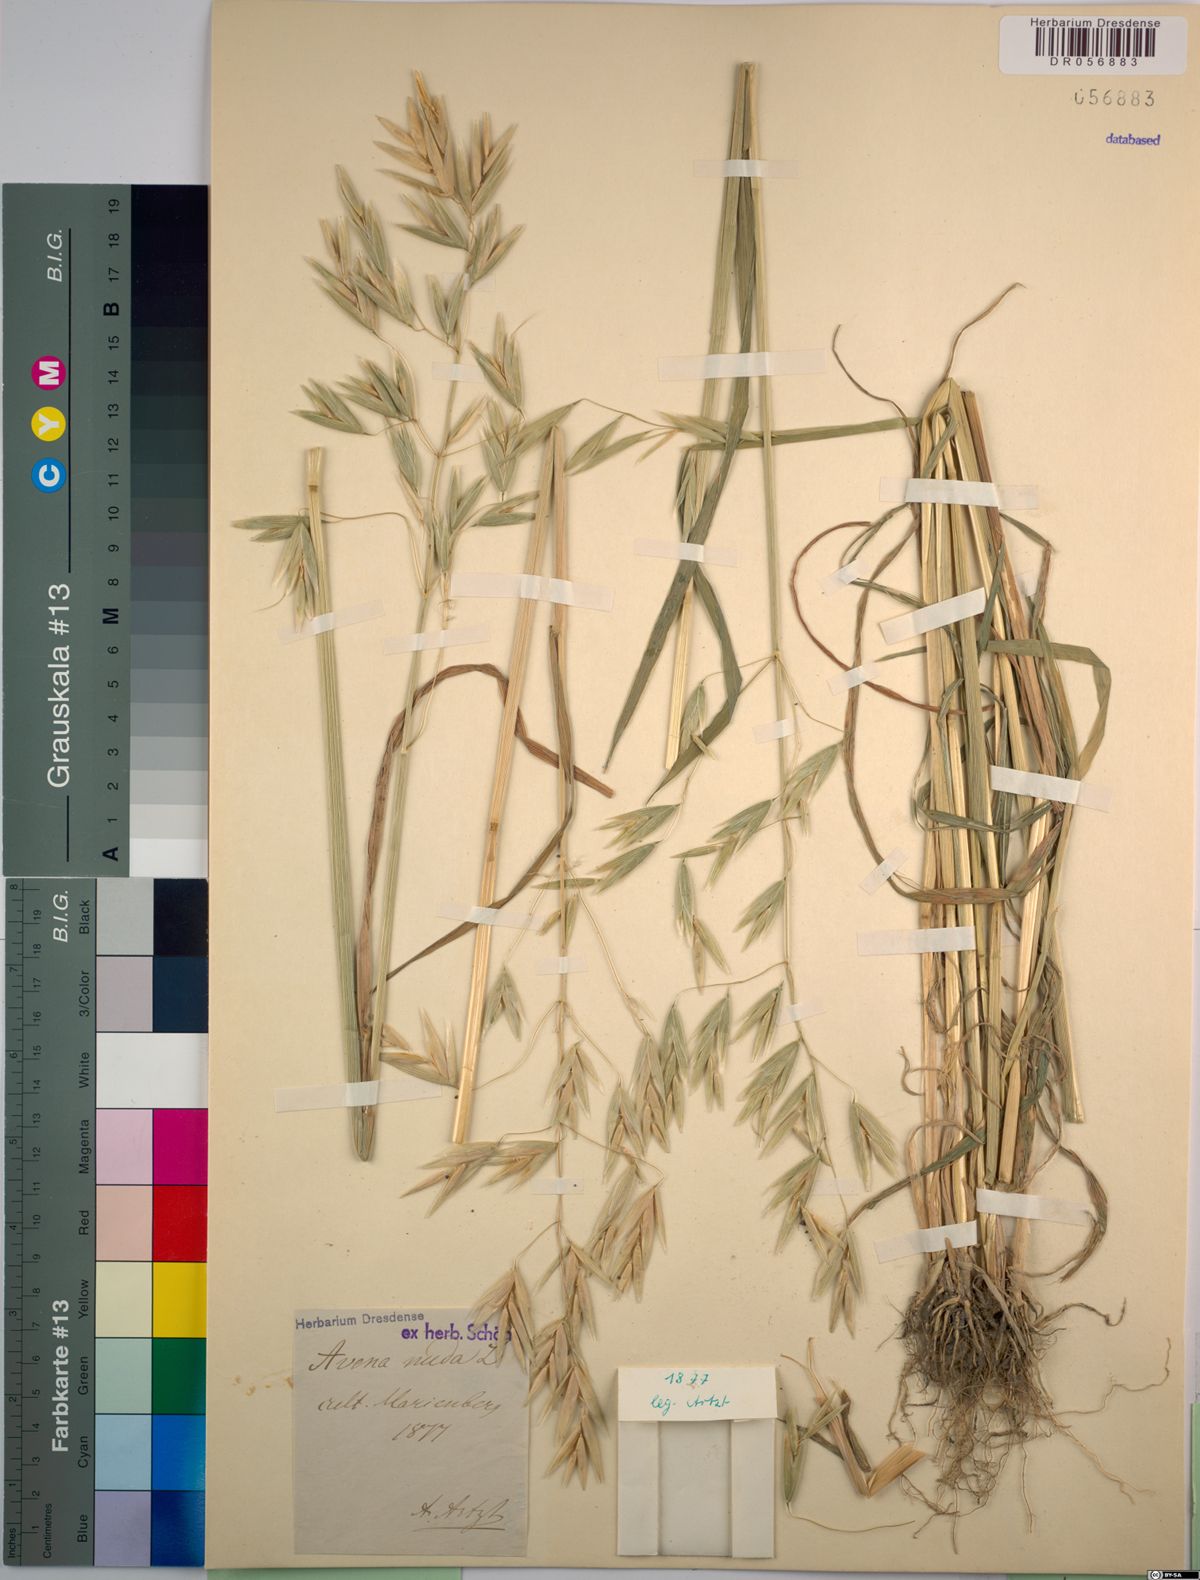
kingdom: Plantae
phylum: Tracheophyta
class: Liliopsida
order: Poales
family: Poaceae
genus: Avena
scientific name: Avena nuda
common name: Naked oat
